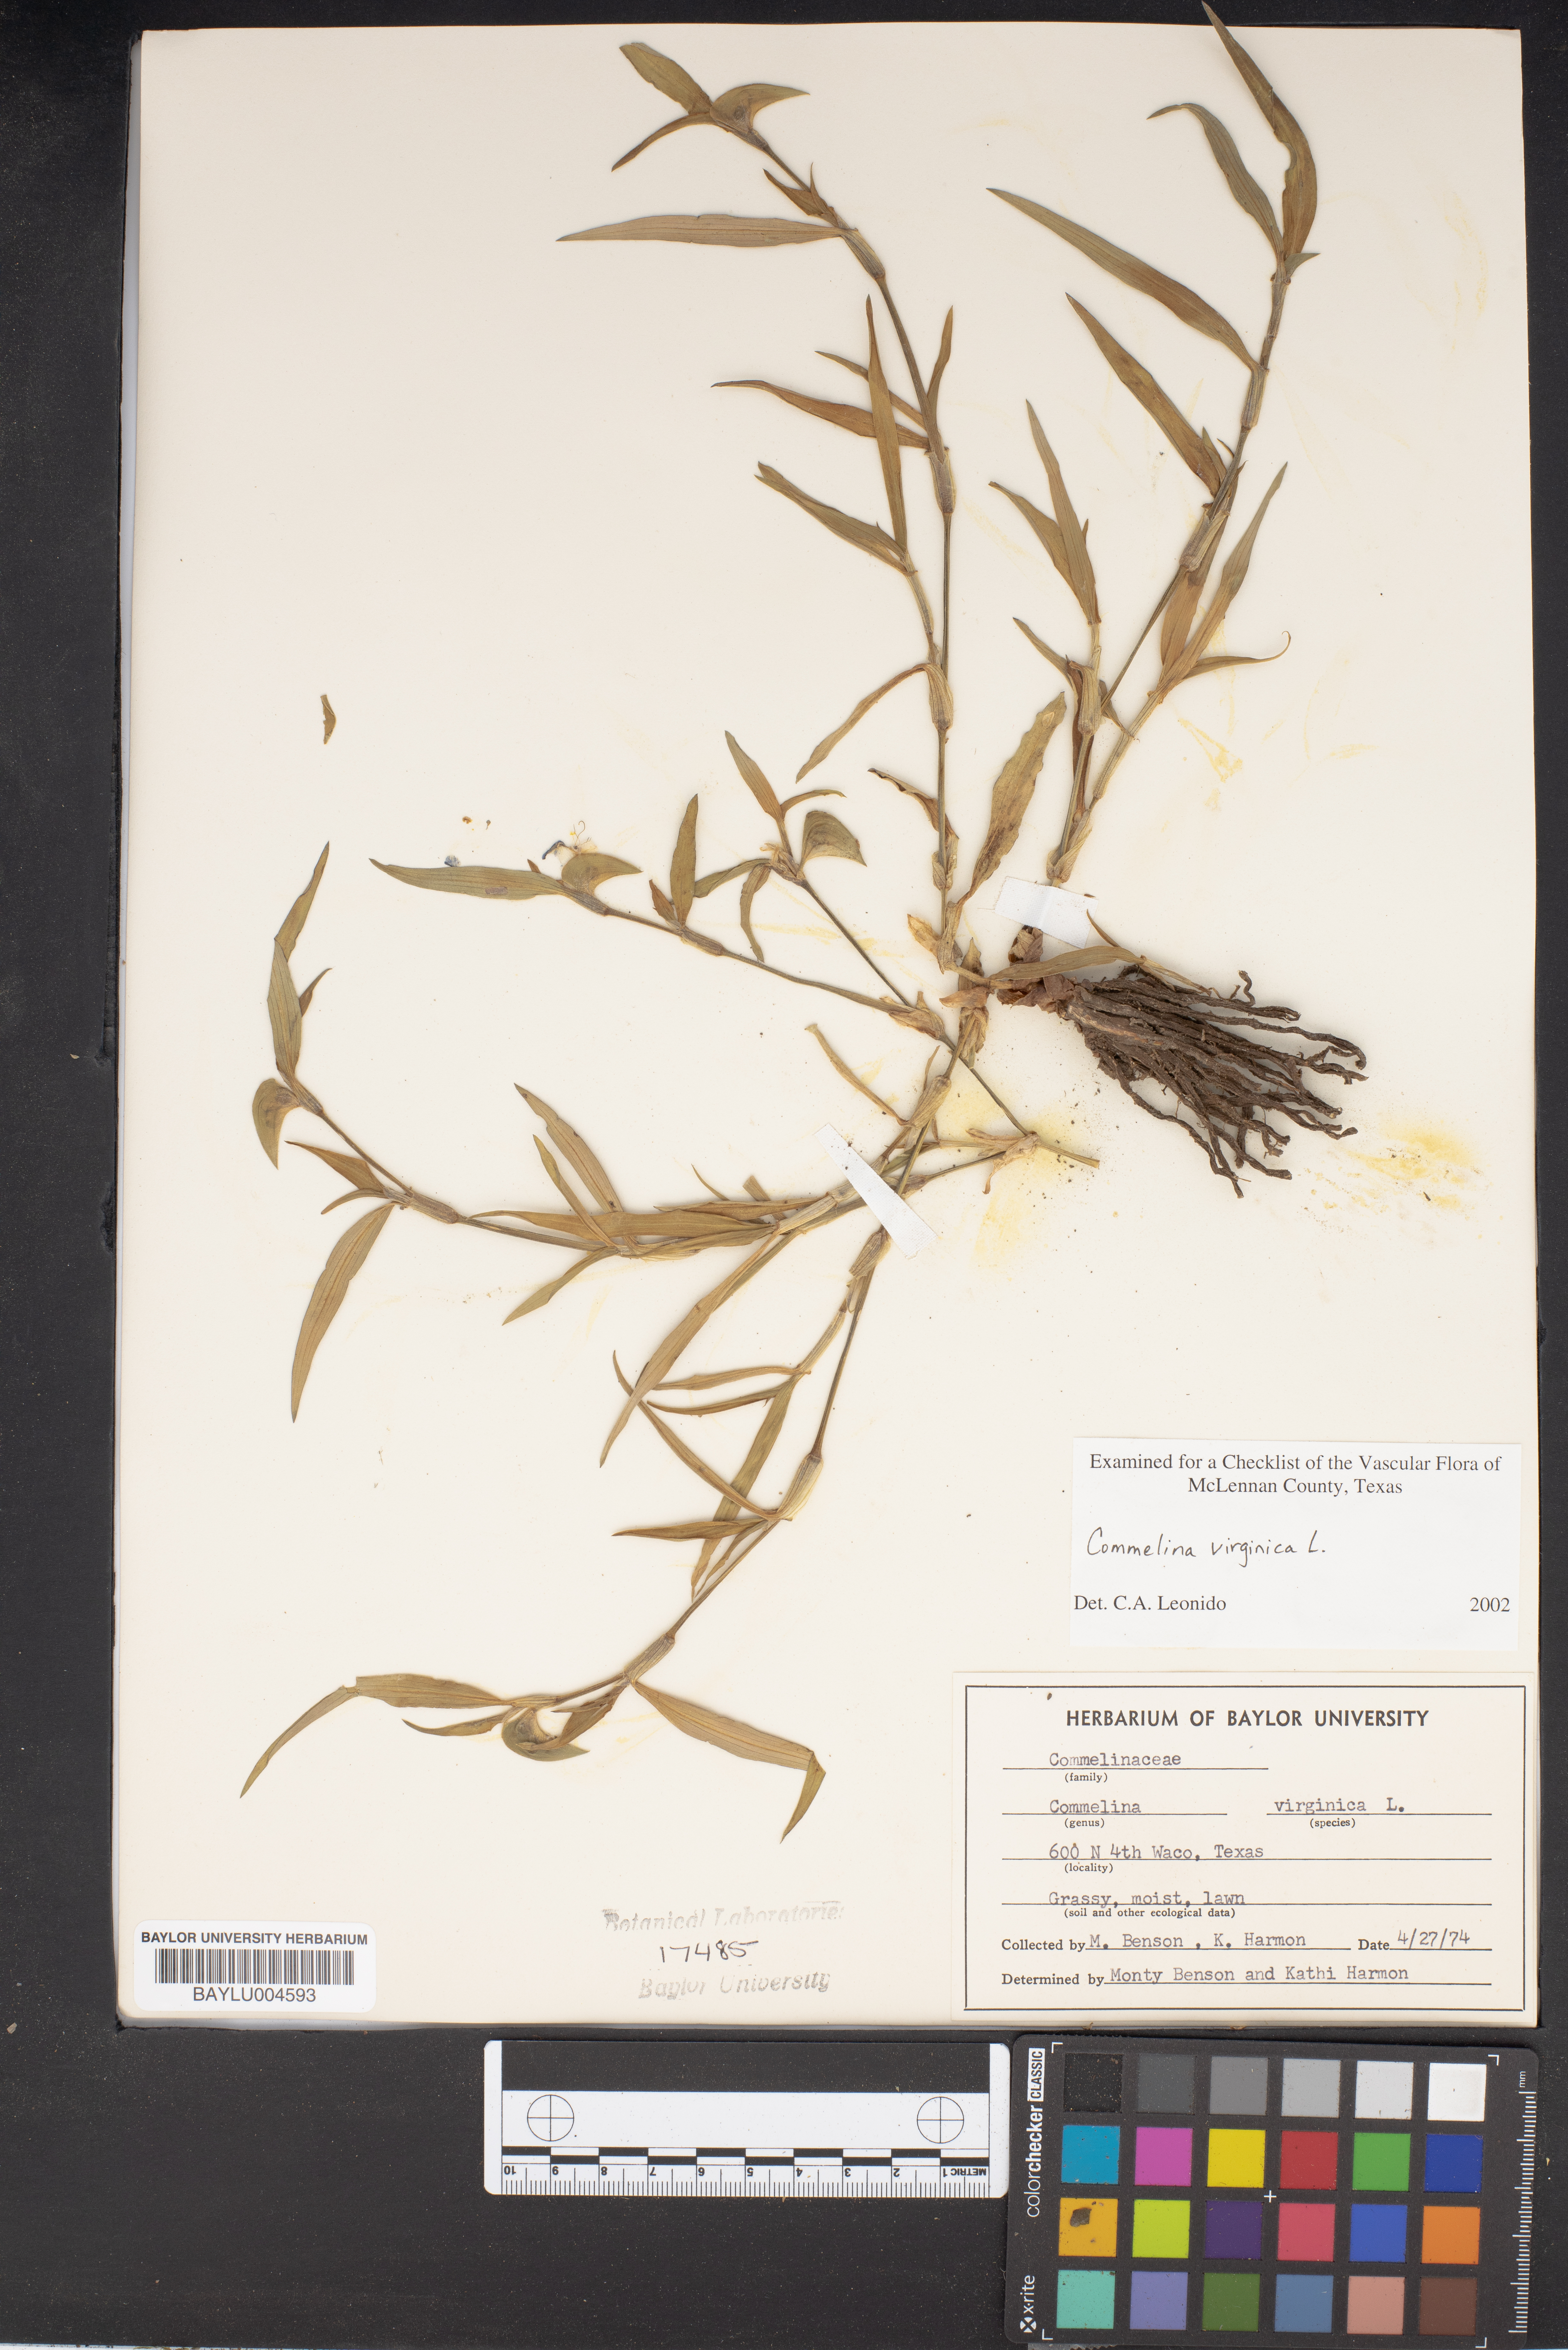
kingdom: Plantae
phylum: Tracheophyta
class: Liliopsida
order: Commelinales
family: Commelinaceae
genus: Commelina
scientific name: Commelina virginica
